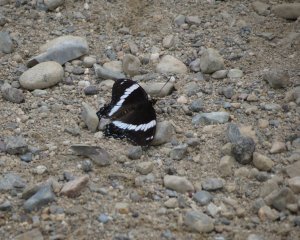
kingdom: Animalia
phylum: Arthropoda
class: Insecta
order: Lepidoptera
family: Nymphalidae
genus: Limenitis
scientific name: Limenitis arthemis
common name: Red-spotted Admiral
